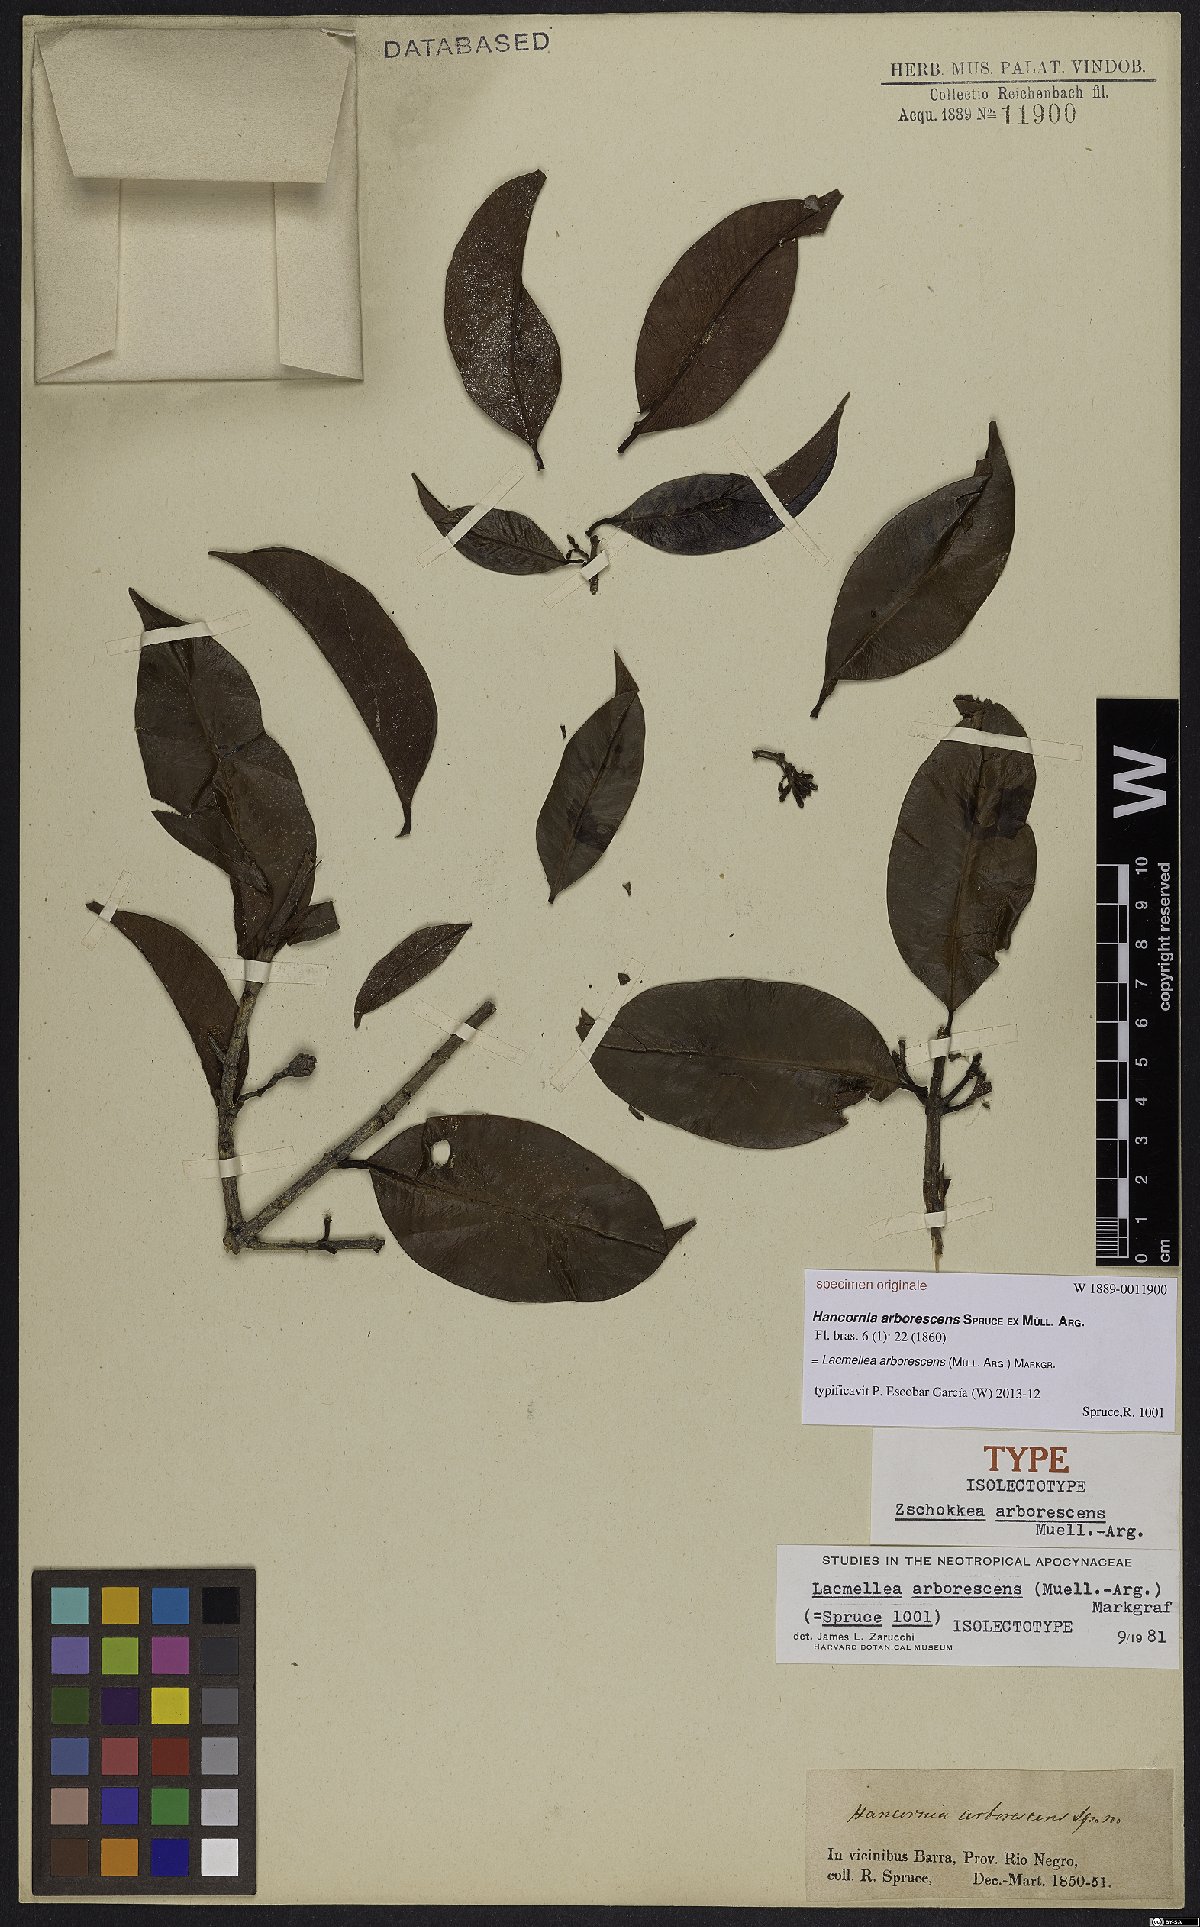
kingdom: Plantae
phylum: Tracheophyta
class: Magnoliopsida
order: Gentianales
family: Apocynaceae
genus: Lacmellea
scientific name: Lacmellea arborescens
